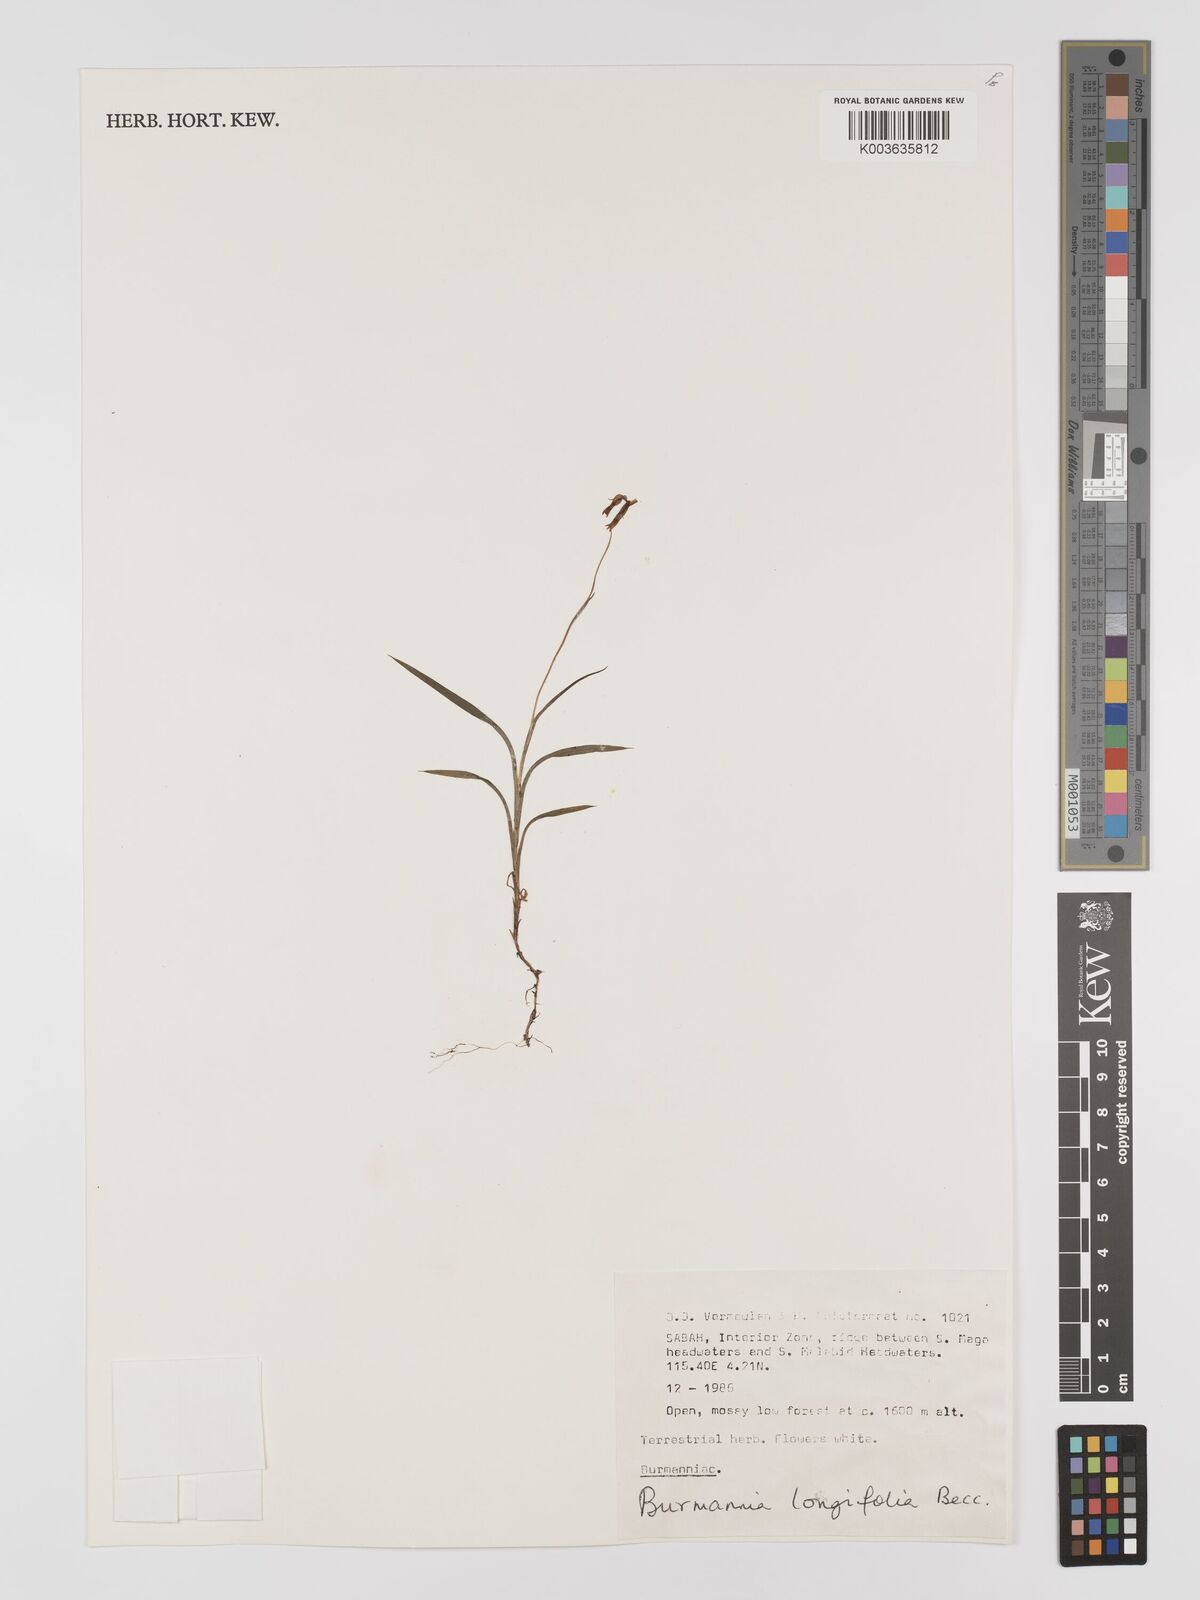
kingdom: Plantae
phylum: Tracheophyta
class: Liliopsida
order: Dioscoreales
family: Burmanniaceae
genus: Burmannia
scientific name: Burmannia longifolia
